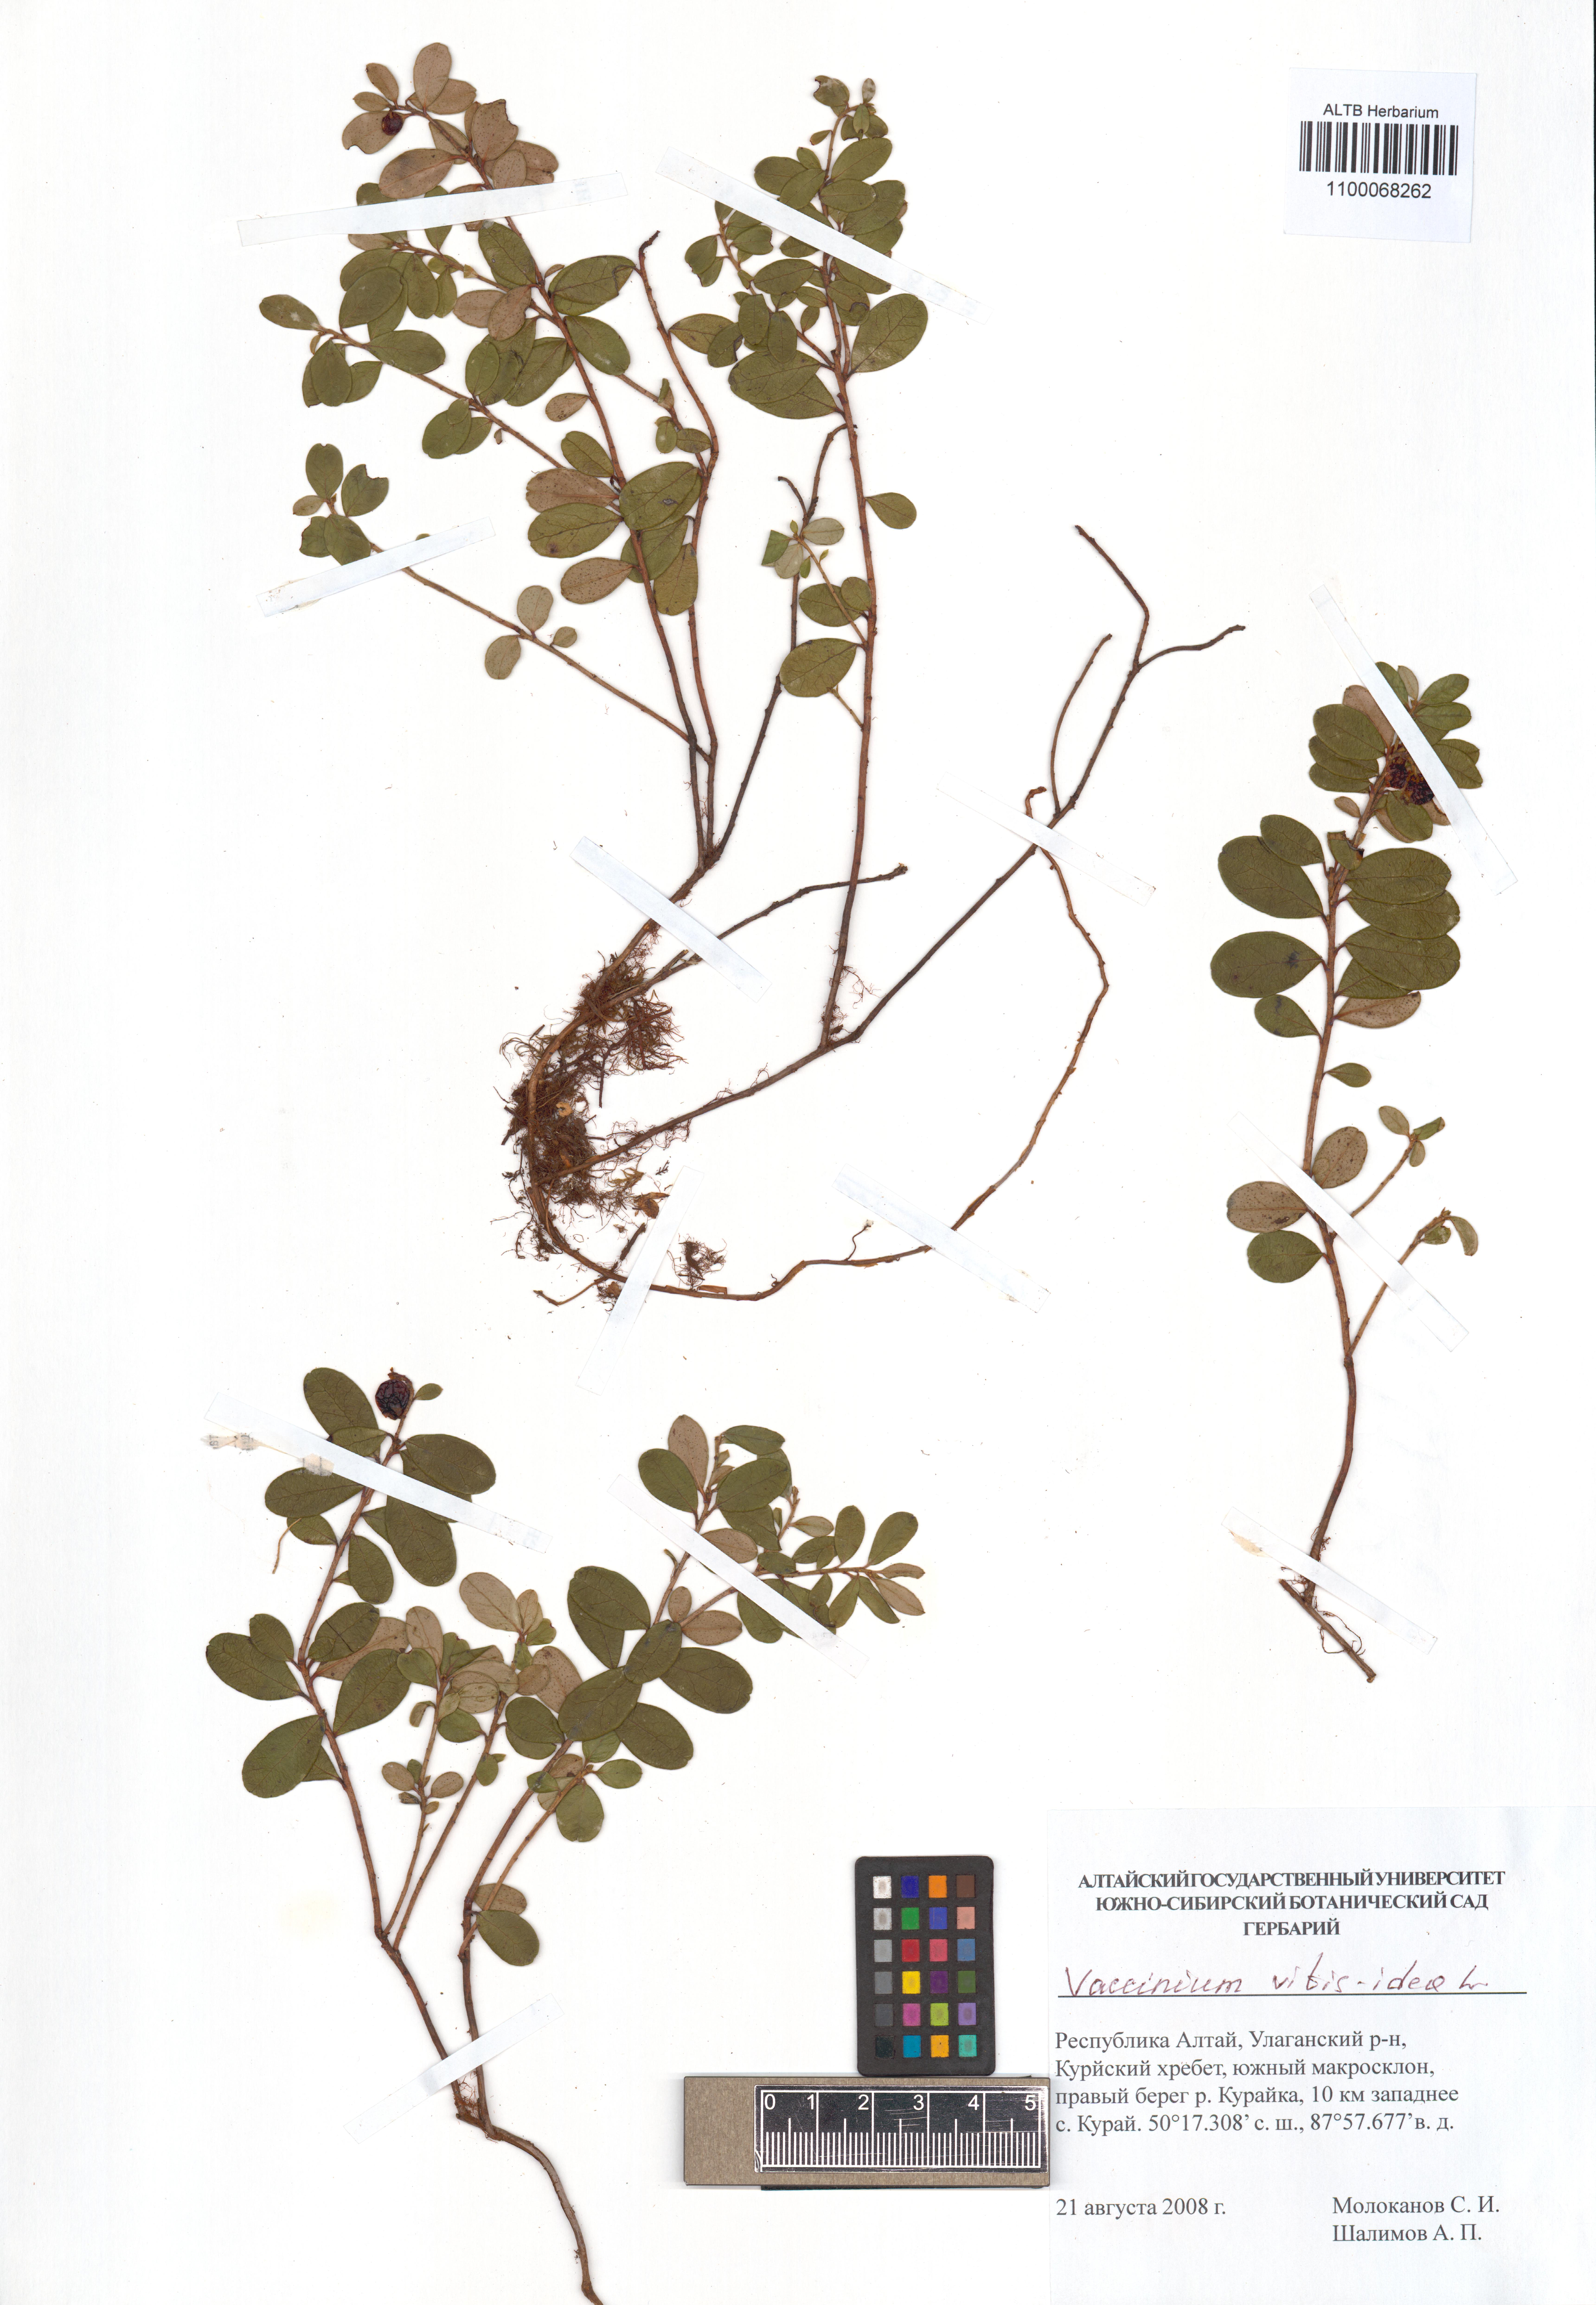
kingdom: Plantae
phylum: Tracheophyta
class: Magnoliopsida
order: Ericales
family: Ericaceae
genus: Vaccinium
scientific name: Vaccinium vitis-idaea
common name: Cowberry
